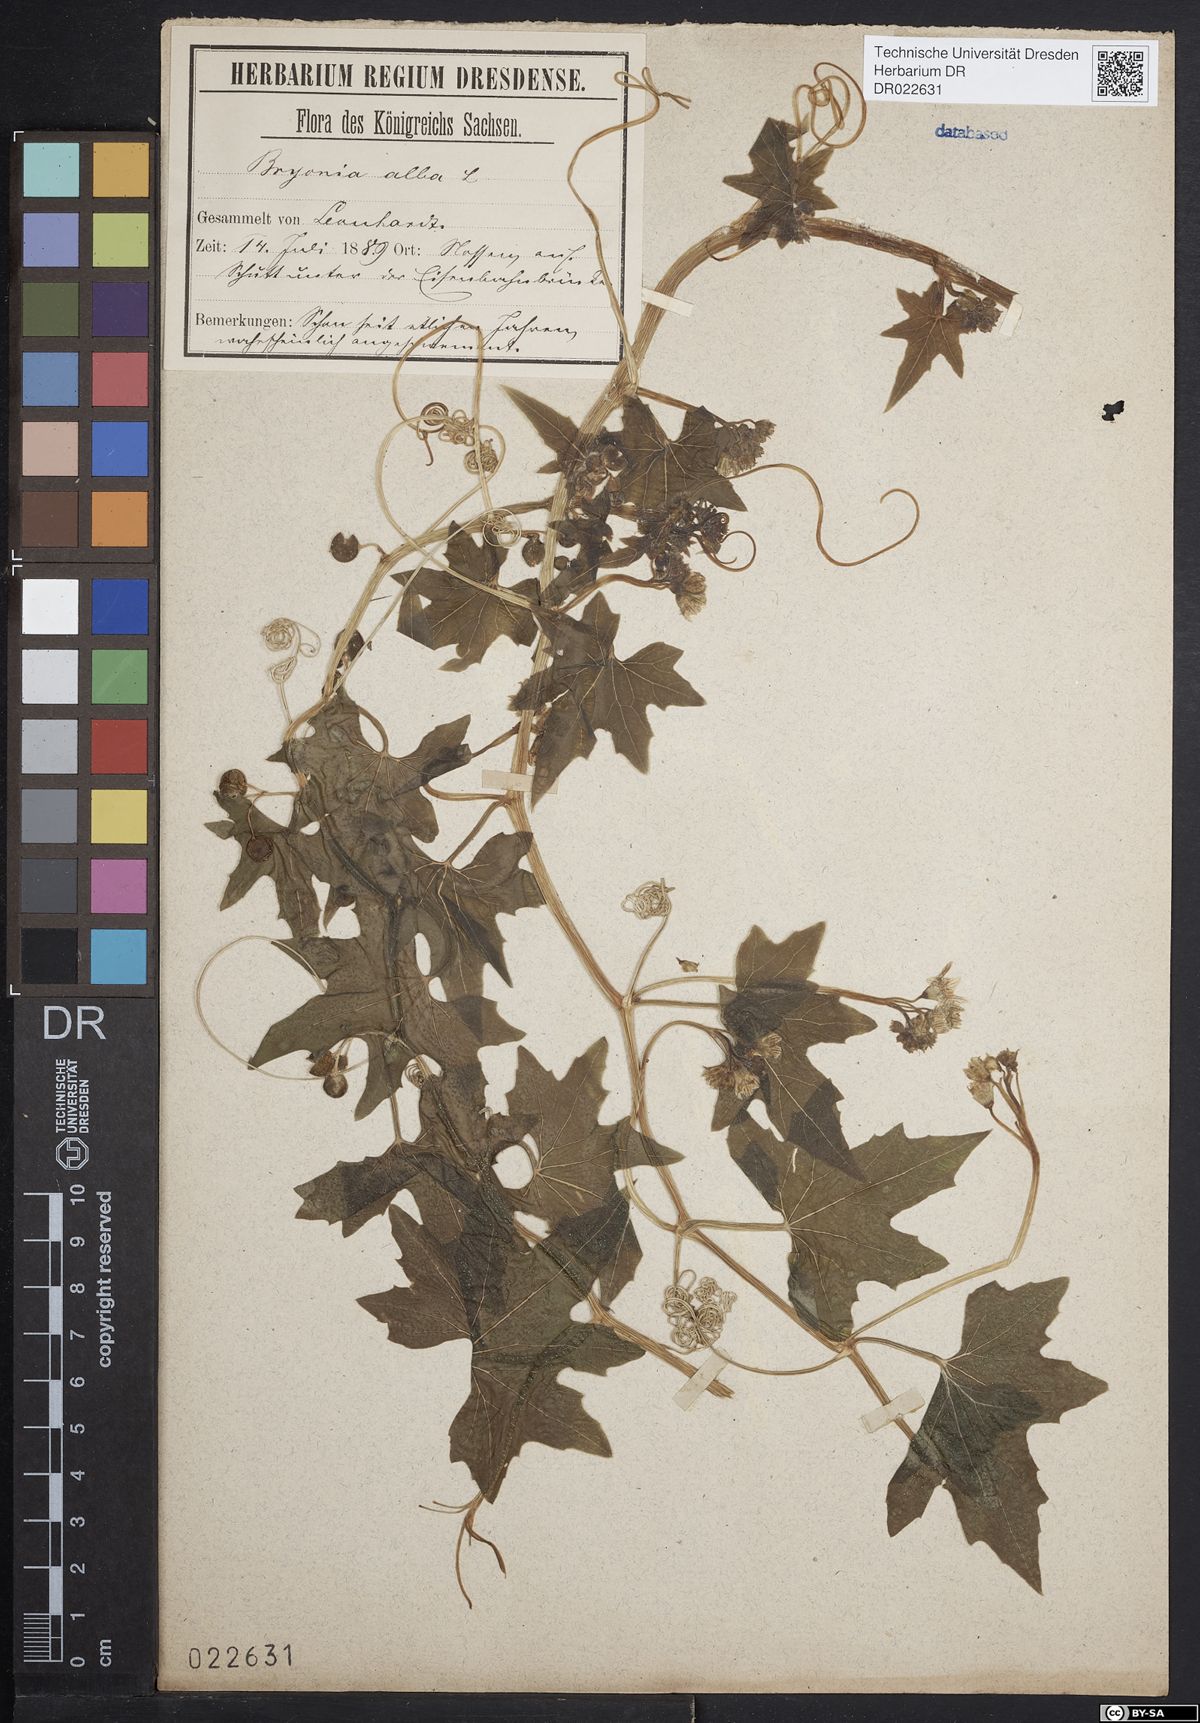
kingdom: Plantae
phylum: Tracheophyta
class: Magnoliopsida
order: Cucurbitales
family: Cucurbitaceae
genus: Bryonia
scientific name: Bryonia alba
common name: White bryony
